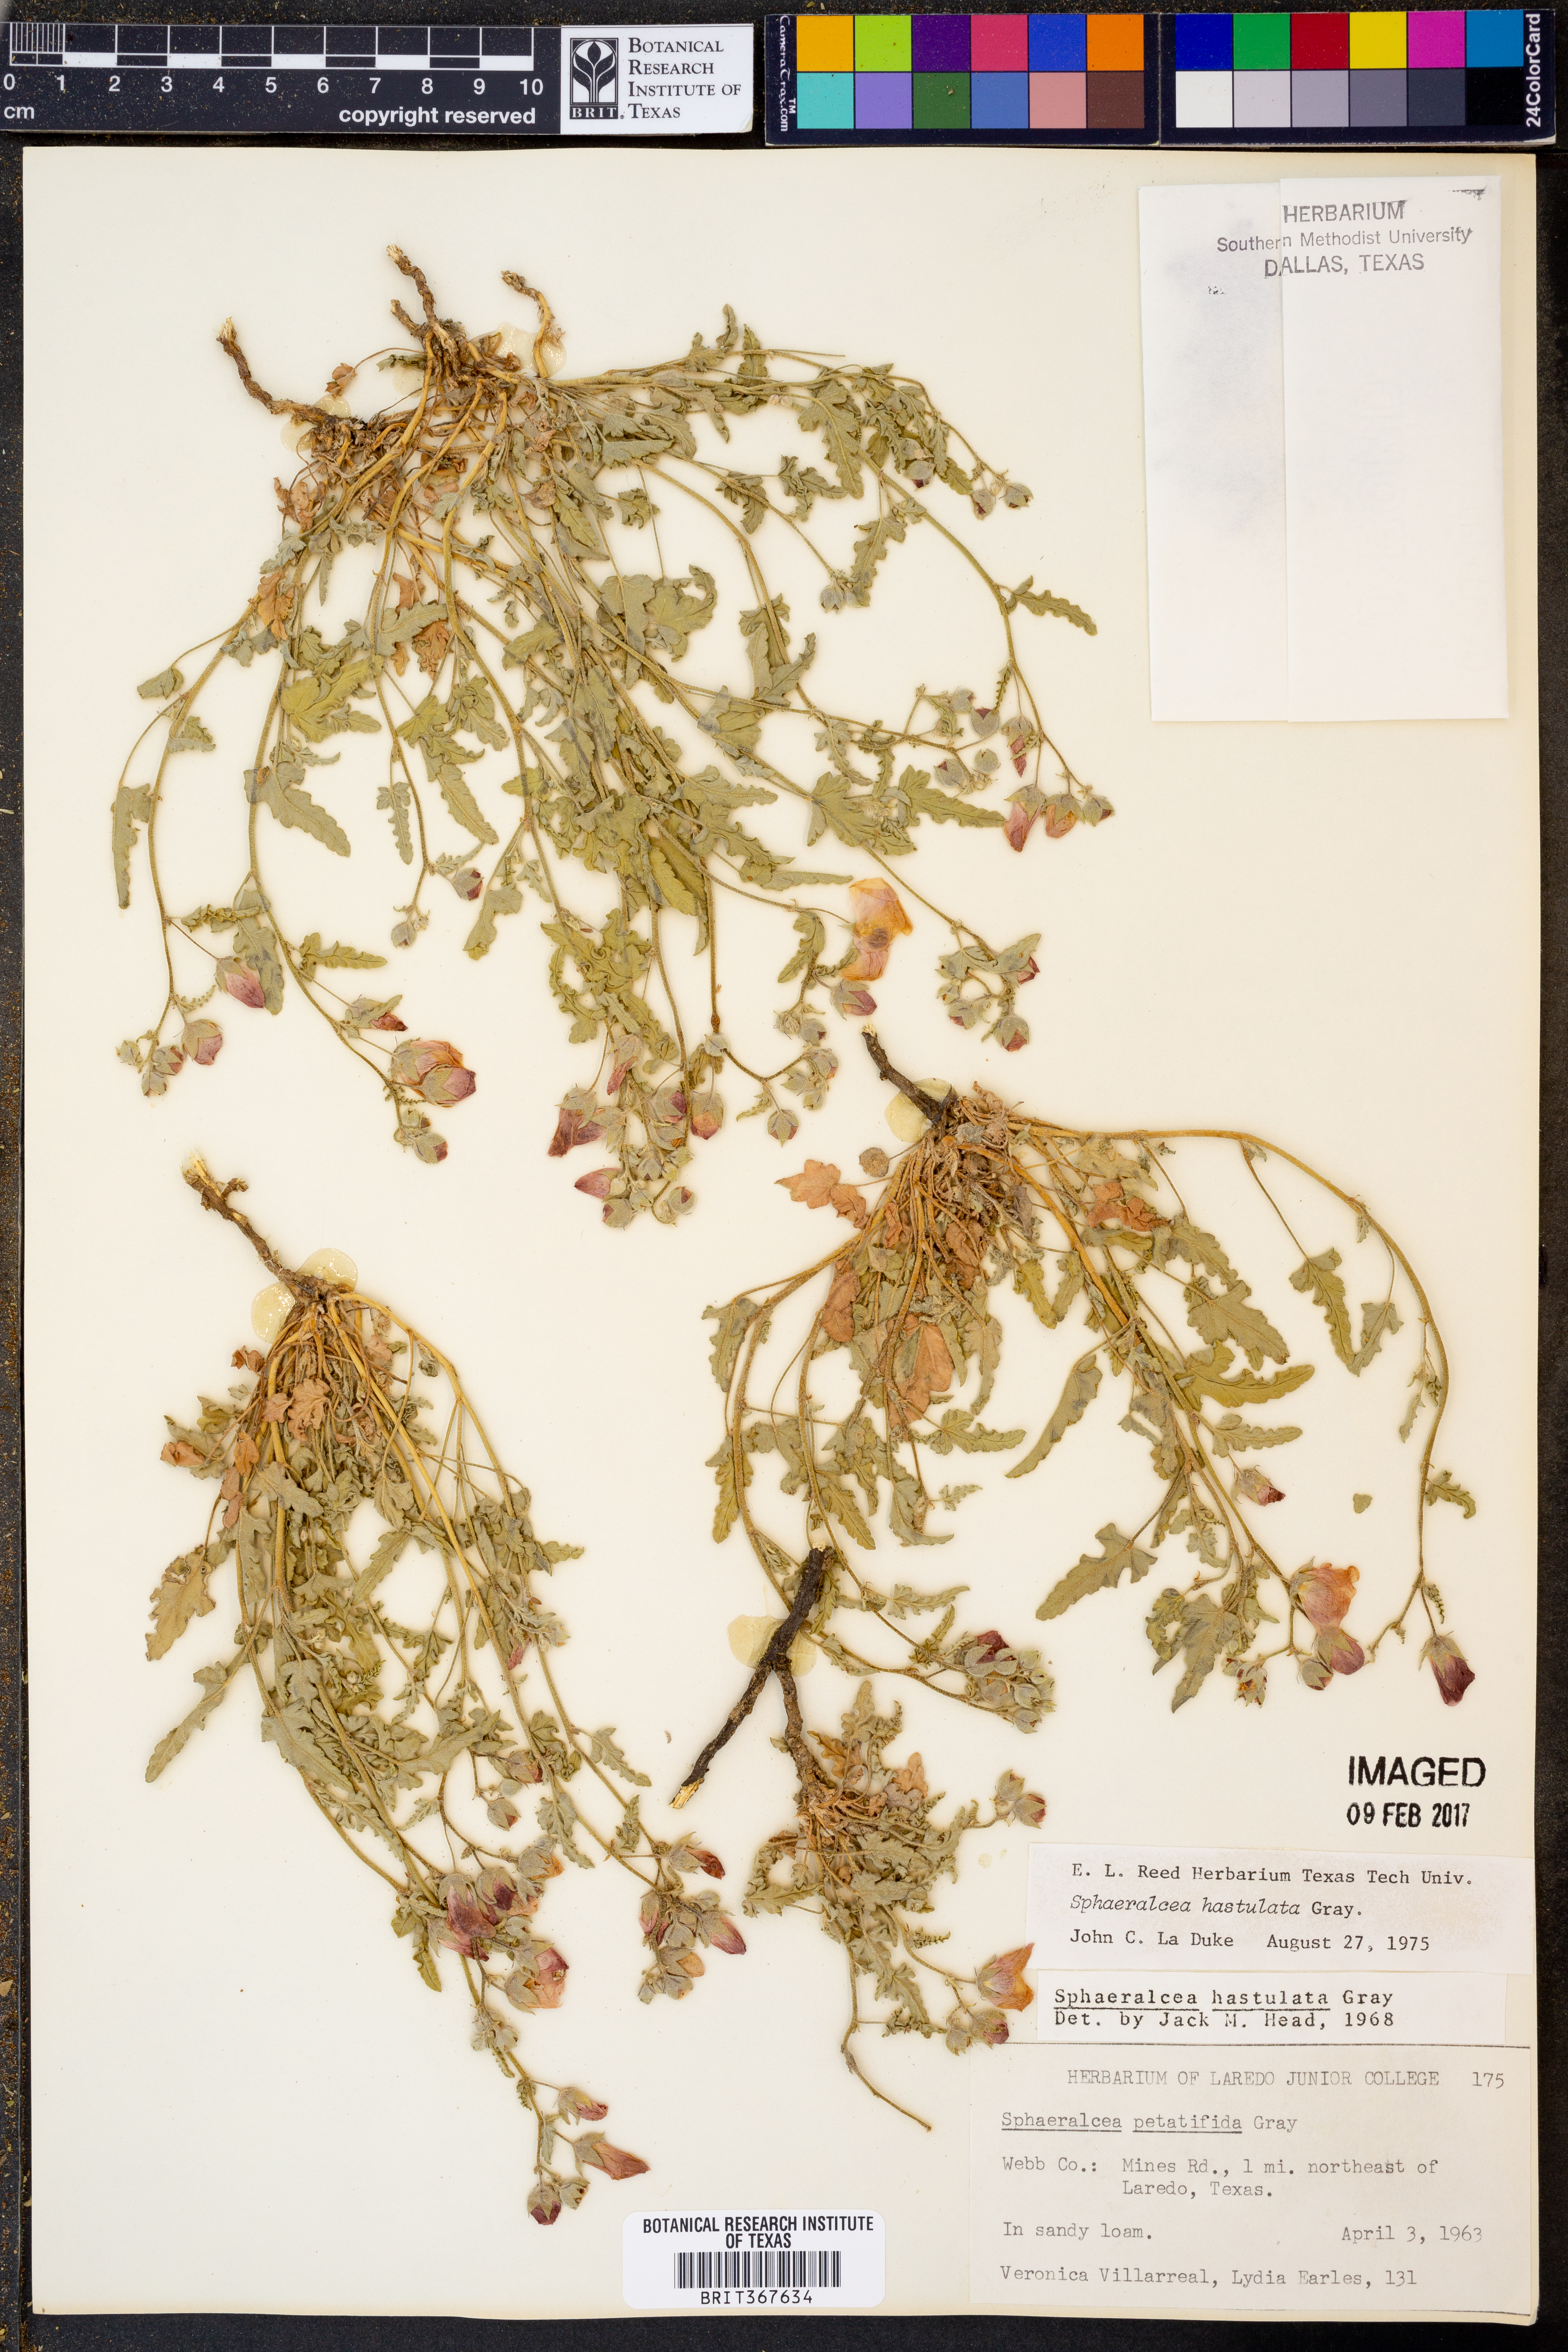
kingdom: Plantae
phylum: Tracheophyta
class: Magnoliopsida
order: Malvales
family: Malvaceae
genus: Sphaeralcea
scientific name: Sphaeralcea hastulata
